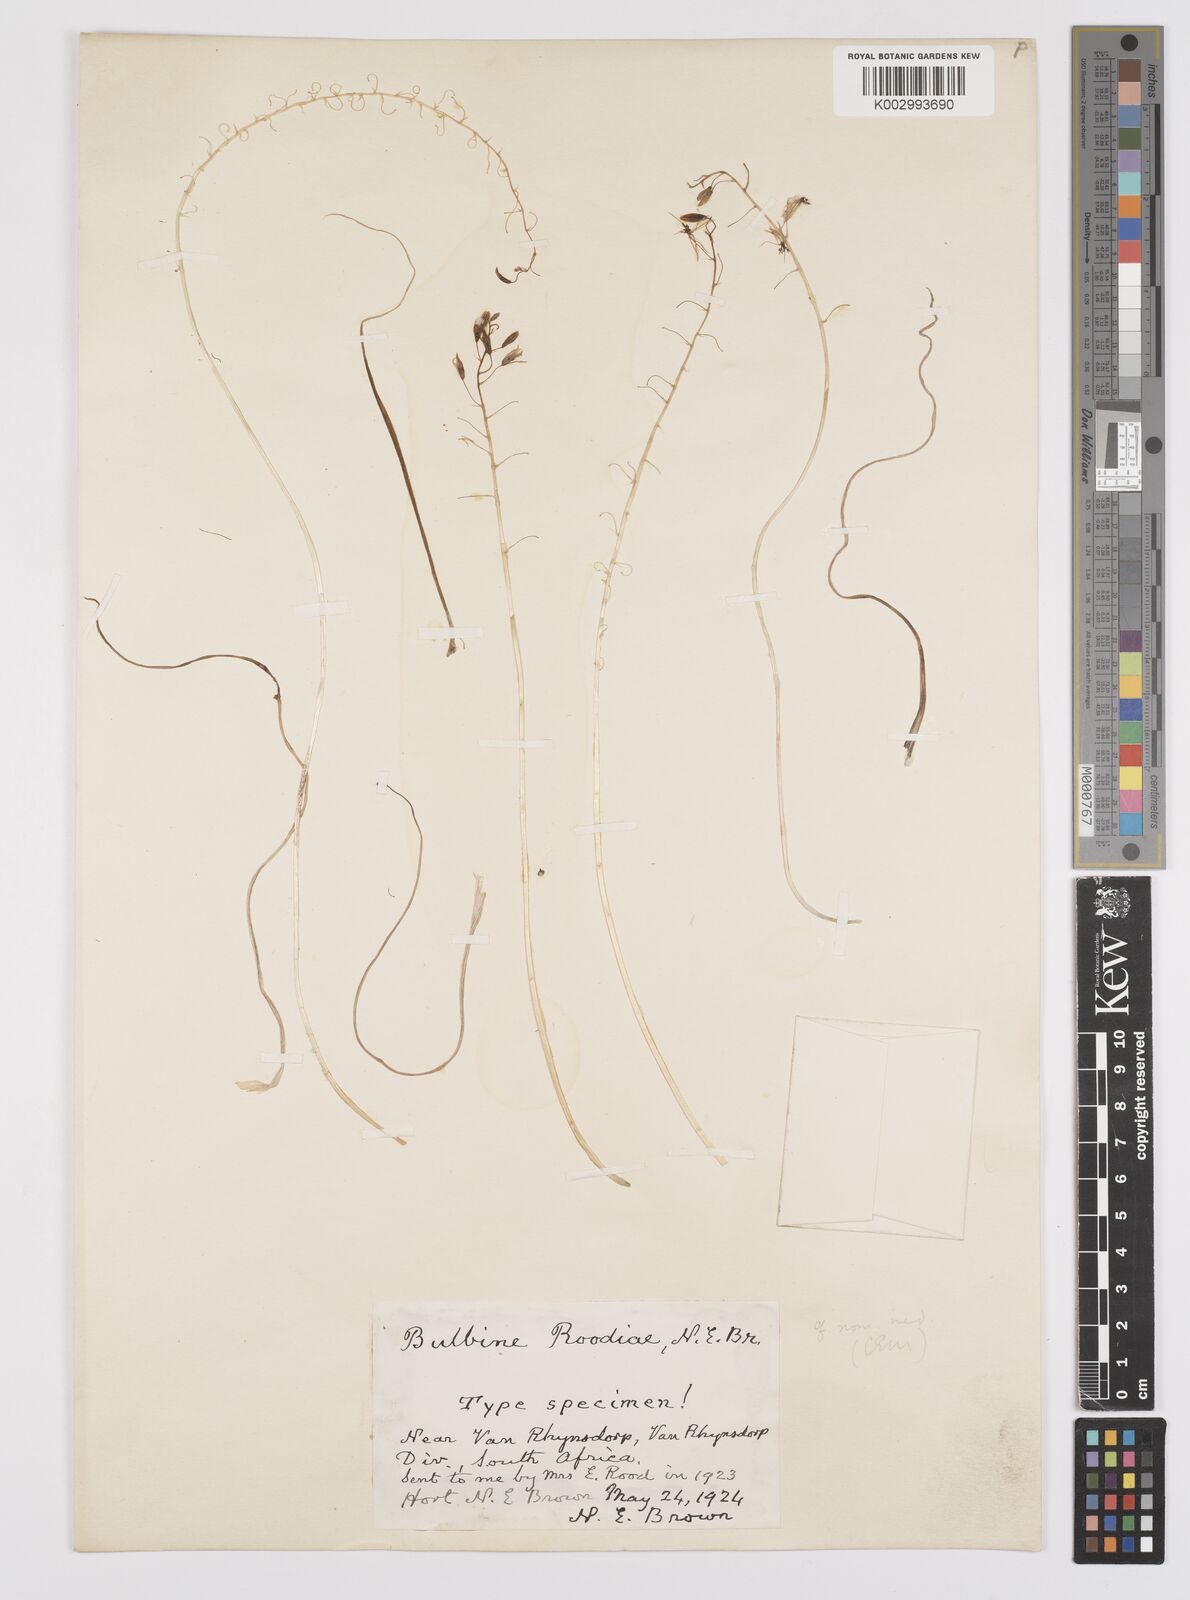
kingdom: Plantae
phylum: Tracheophyta
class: Liliopsida
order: Asparagales
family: Asphodelaceae
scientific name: Asphodelaceae
